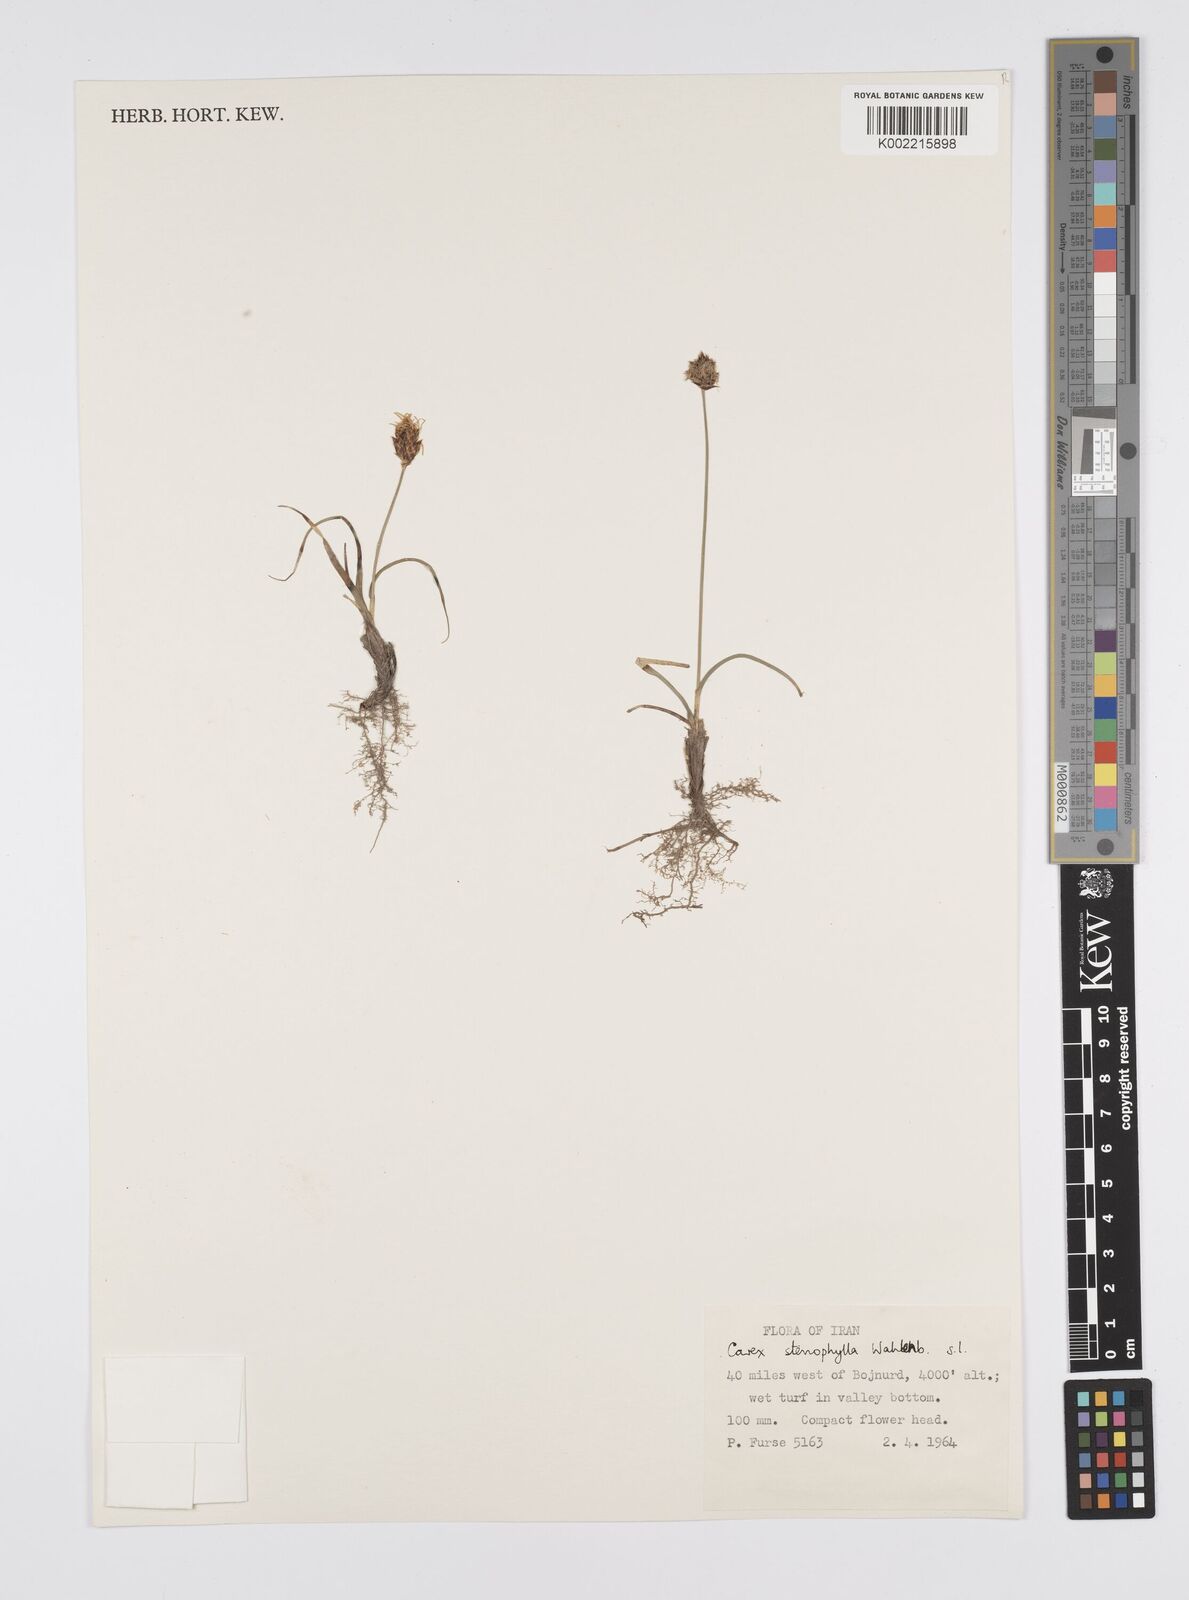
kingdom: Plantae
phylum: Tracheophyta
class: Liliopsida
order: Poales
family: Cyperaceae
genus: Carex
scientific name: Carex stenophylla
